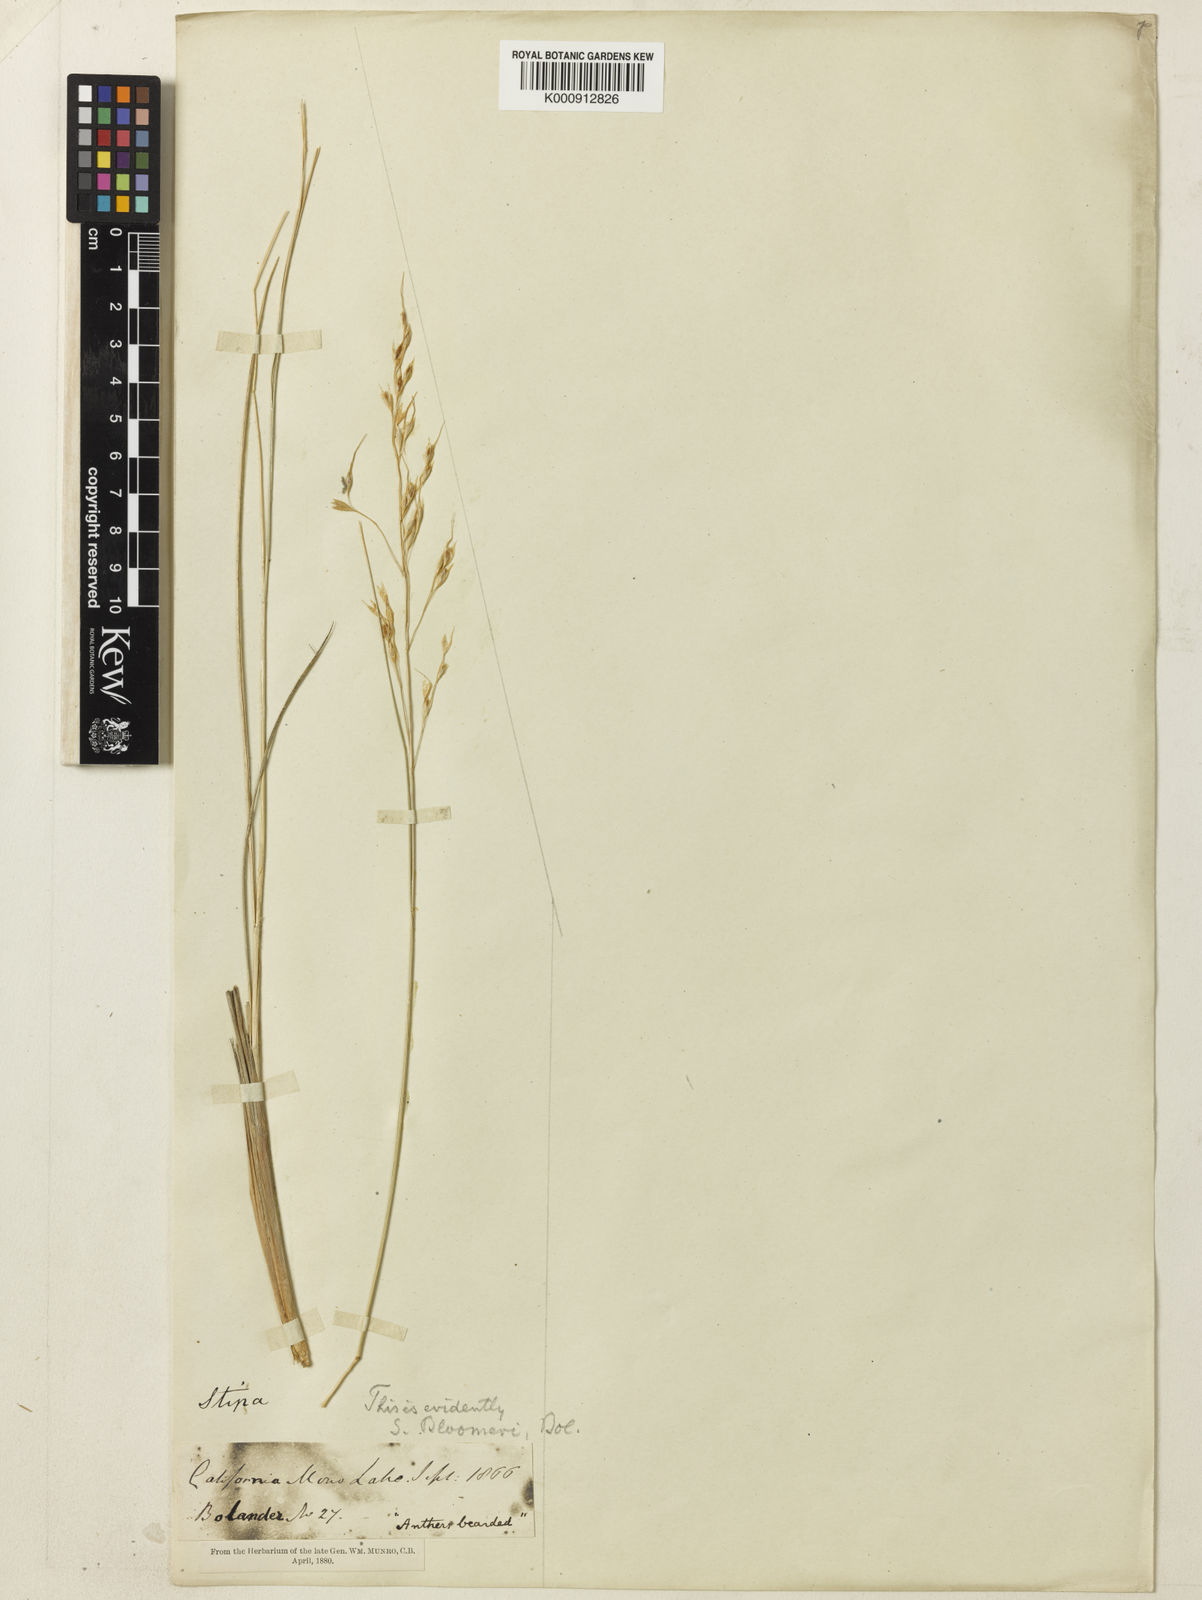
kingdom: Plantae
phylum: Tracheophyta
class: Liliopsida
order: Poales
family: Poaceae
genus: Eriocoma
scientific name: Eriocoma bloomeri
